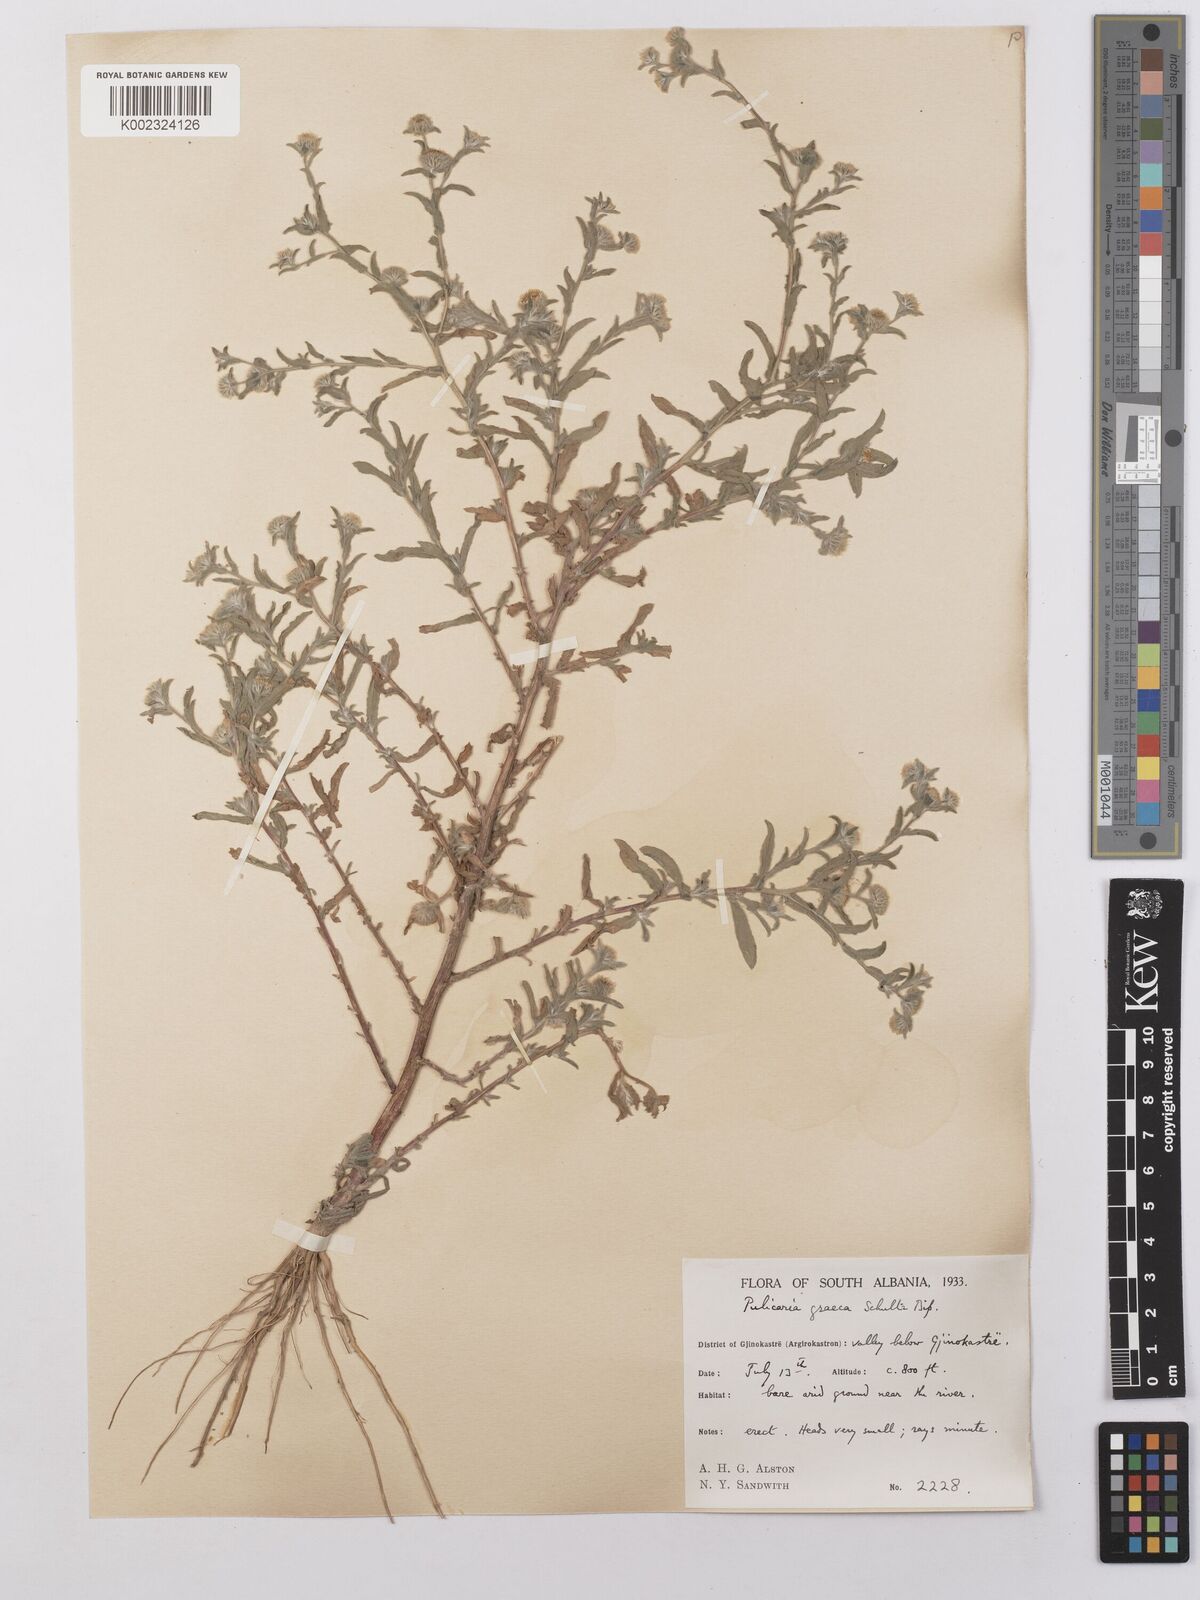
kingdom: Plantae
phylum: Tracheophyta
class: Magnoliopsida
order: Asterales
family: Asteraceae
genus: Pulicaria
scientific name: Pulicaria vulgaris
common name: Small fleabane
